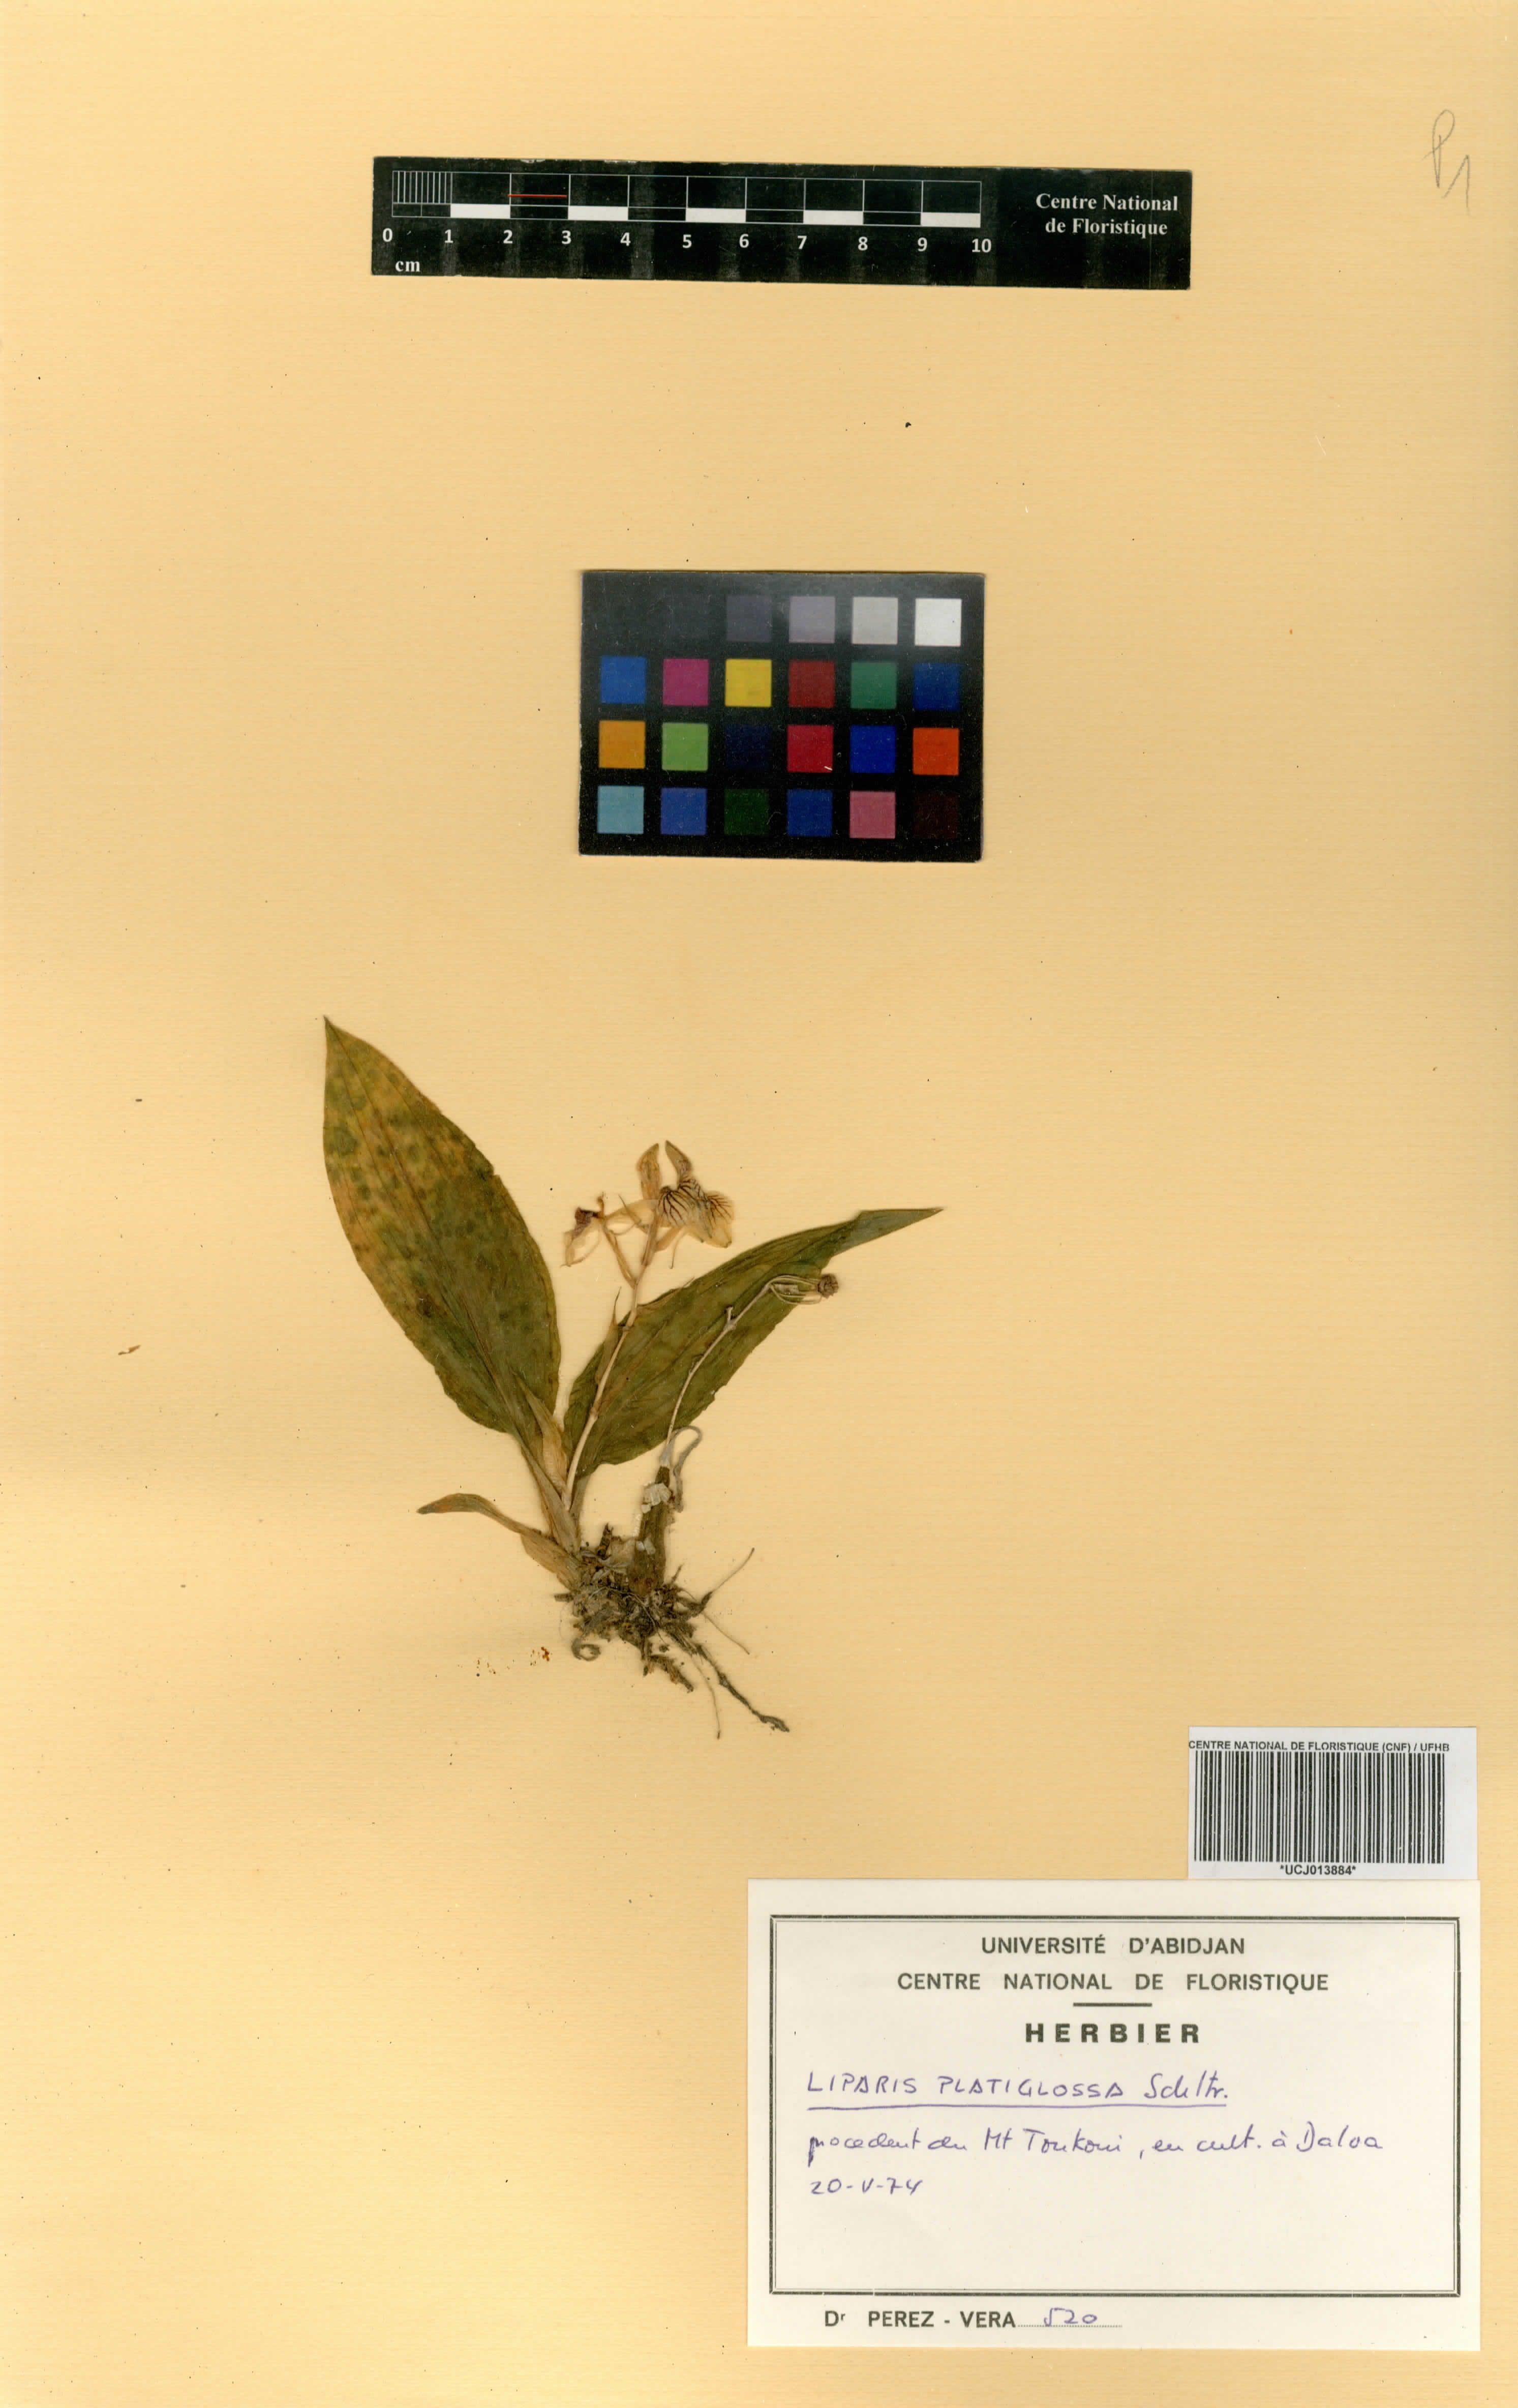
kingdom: Plantae
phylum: Tracheophyta
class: Liliopsida
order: Asparagales
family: Orchidaceae
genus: Liparis
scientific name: Liparis platyglossa
